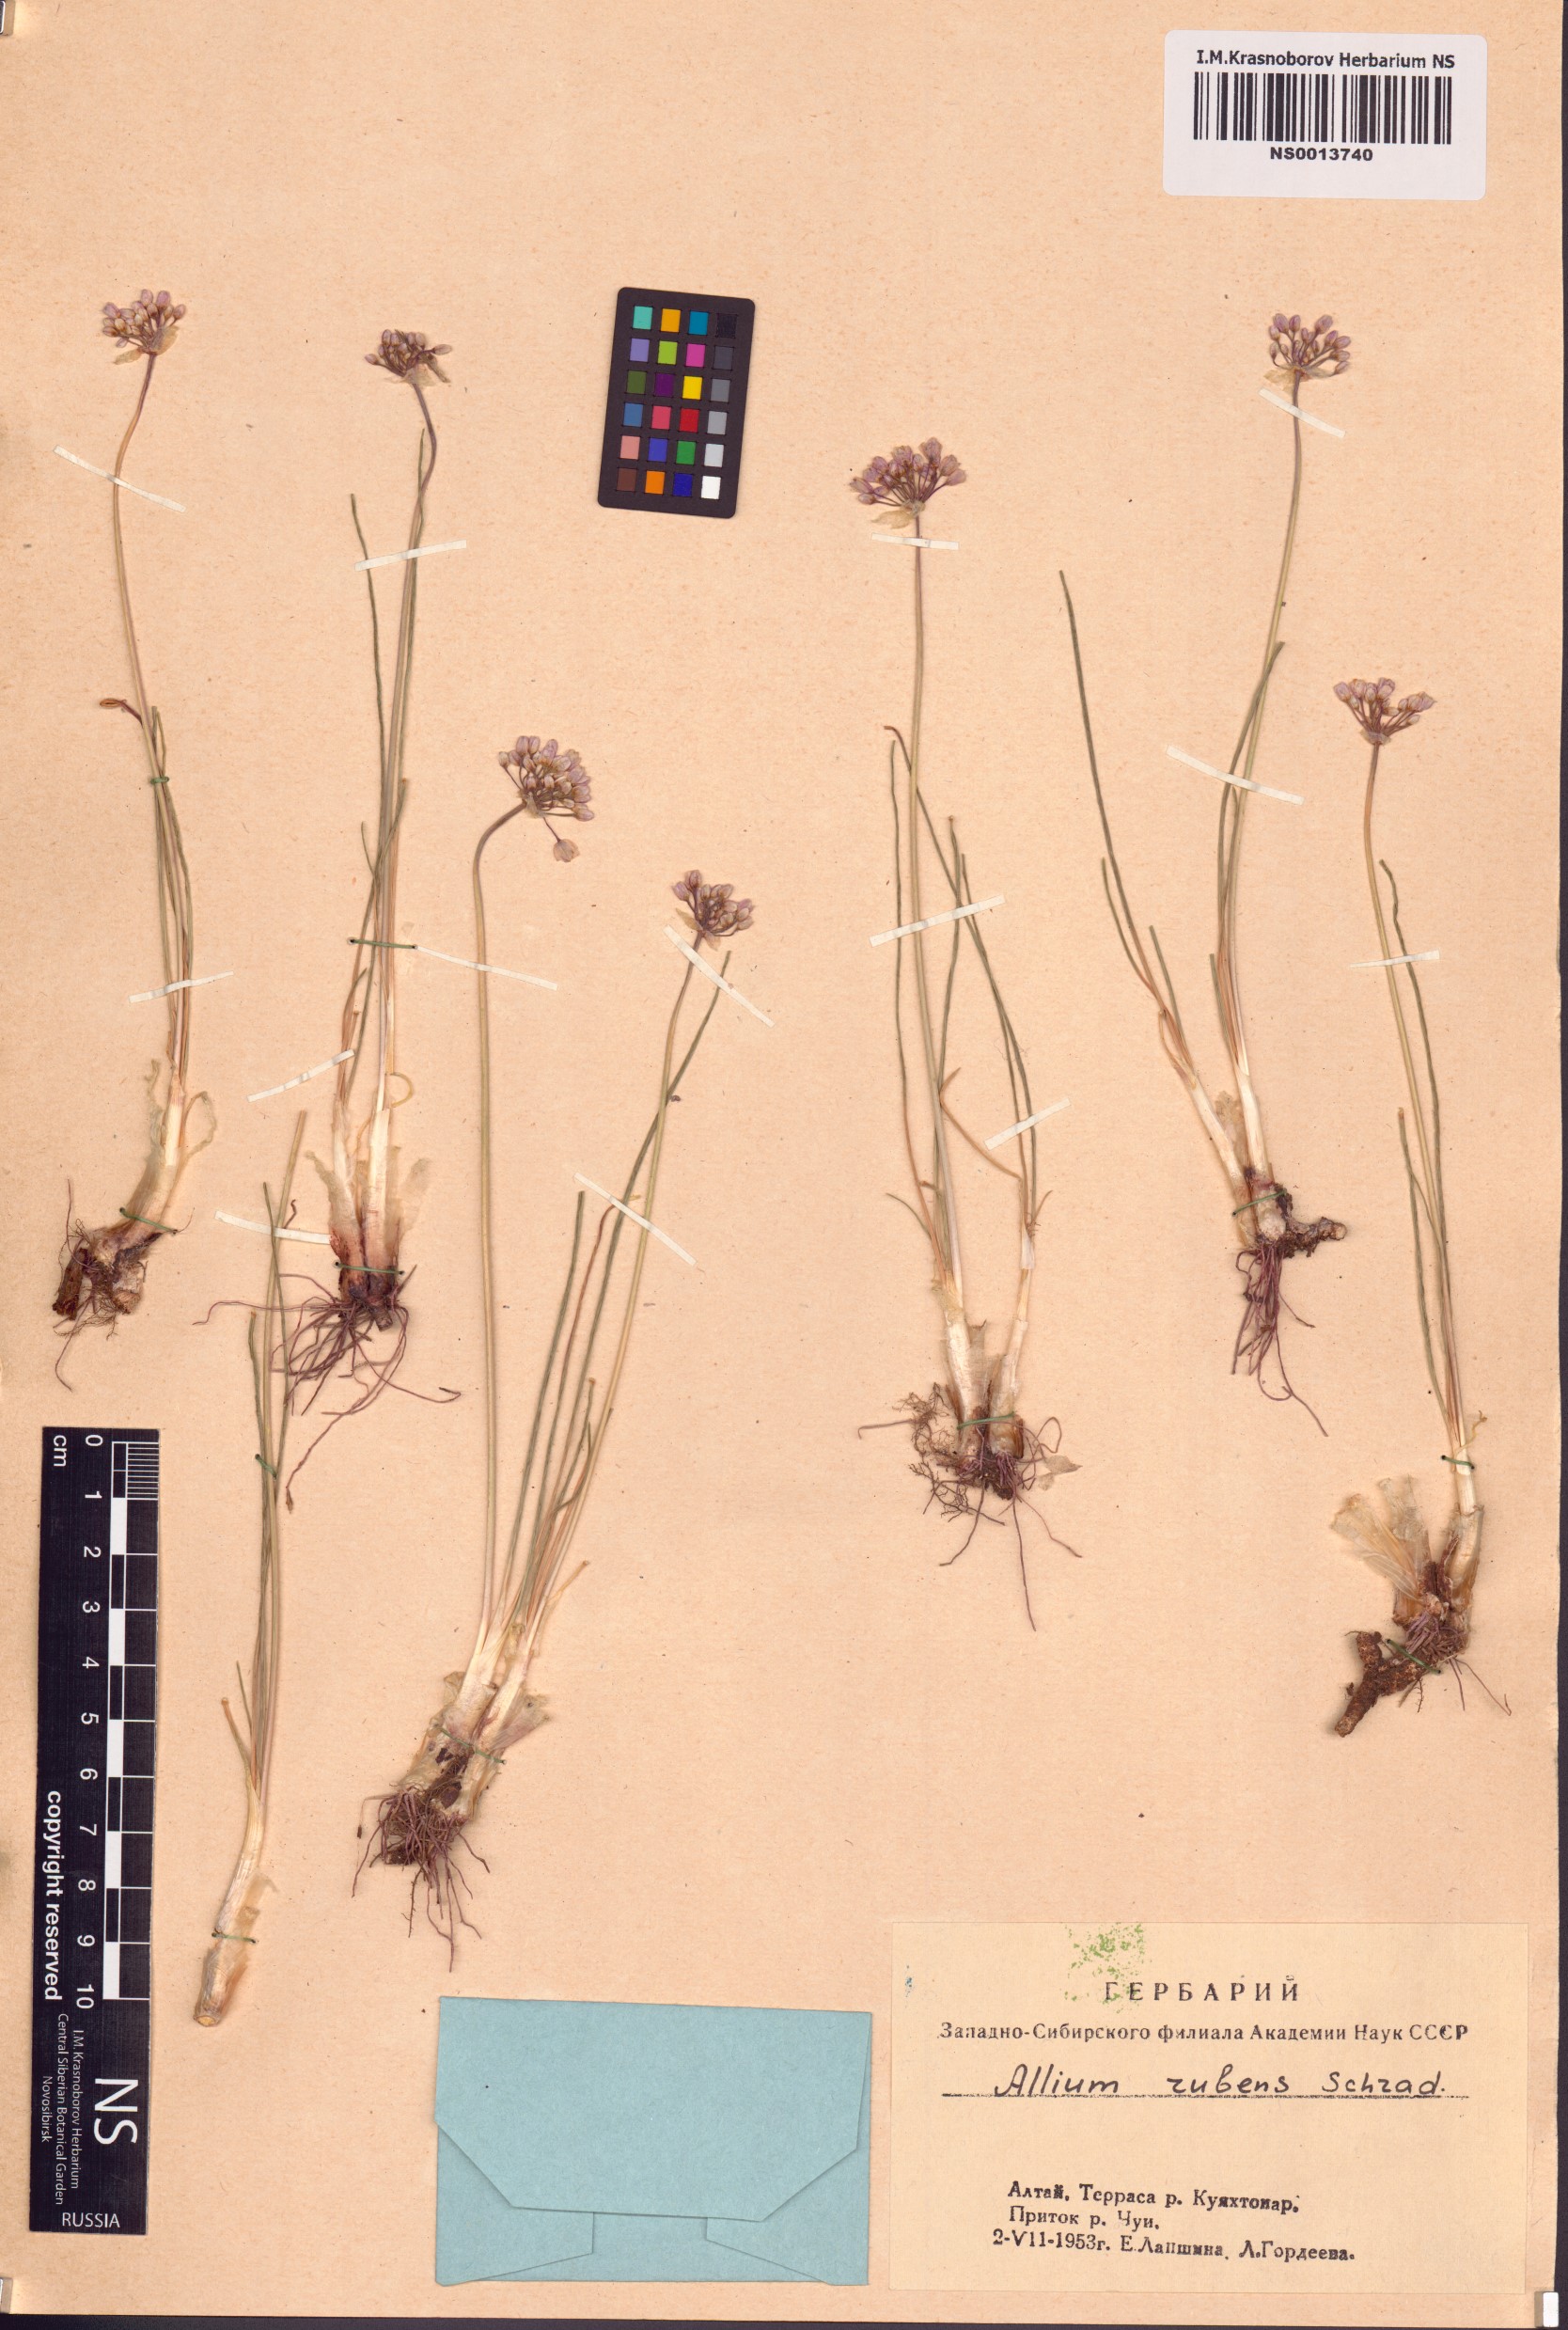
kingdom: Plantae
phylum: Tracheophyta
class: Liliopsida
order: Asparagales
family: Amaryllidaceae
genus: Allium
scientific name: Allium rubens
